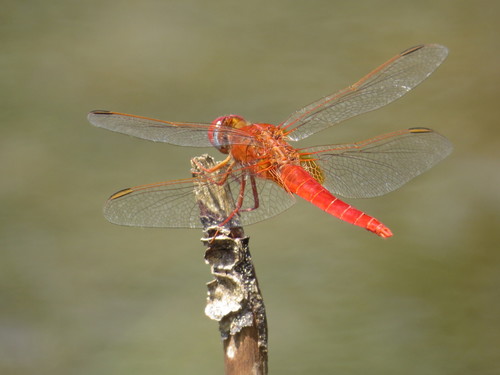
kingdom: Animalia
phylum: Arthropoda
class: Insecta
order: Odonata
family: Libellulidae
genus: Crocothemis
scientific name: Crocothemis erythraea
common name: Scarlet dragonfly
